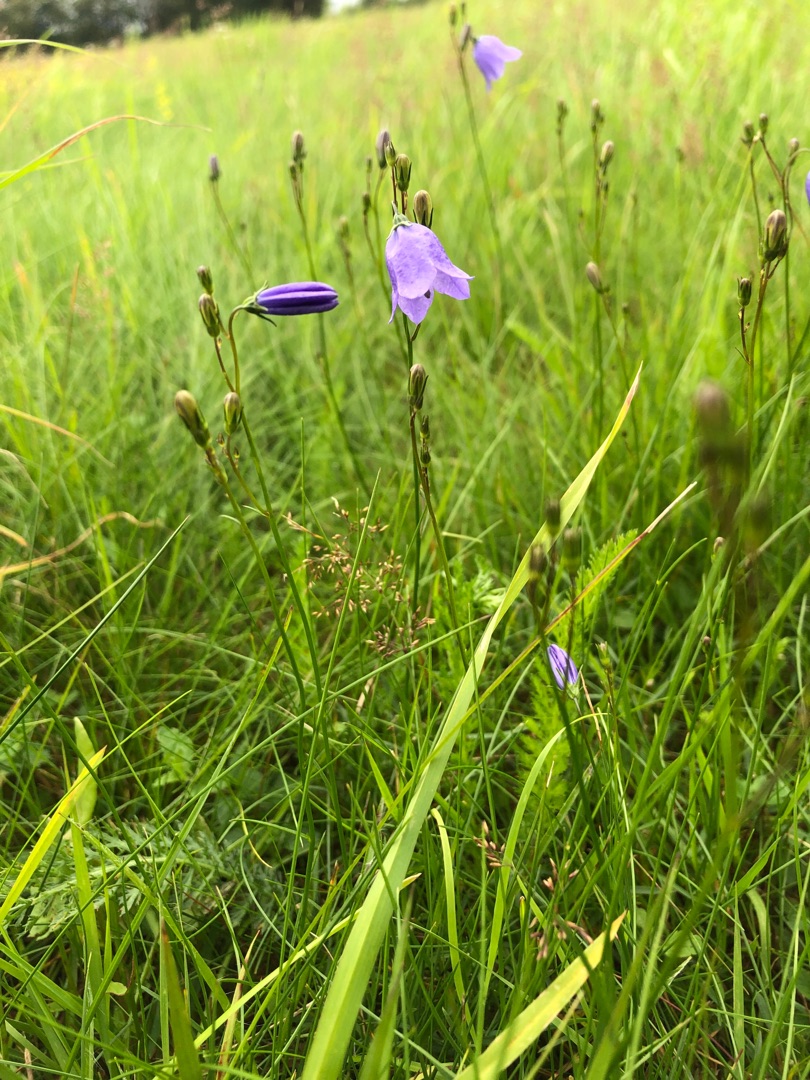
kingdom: Plantae
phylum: Tracheophyta
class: Magnoliopsida
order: Asterales
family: Campanulaceae
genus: Campanula
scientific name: Campanula rotundifolia
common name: Liden klokke
